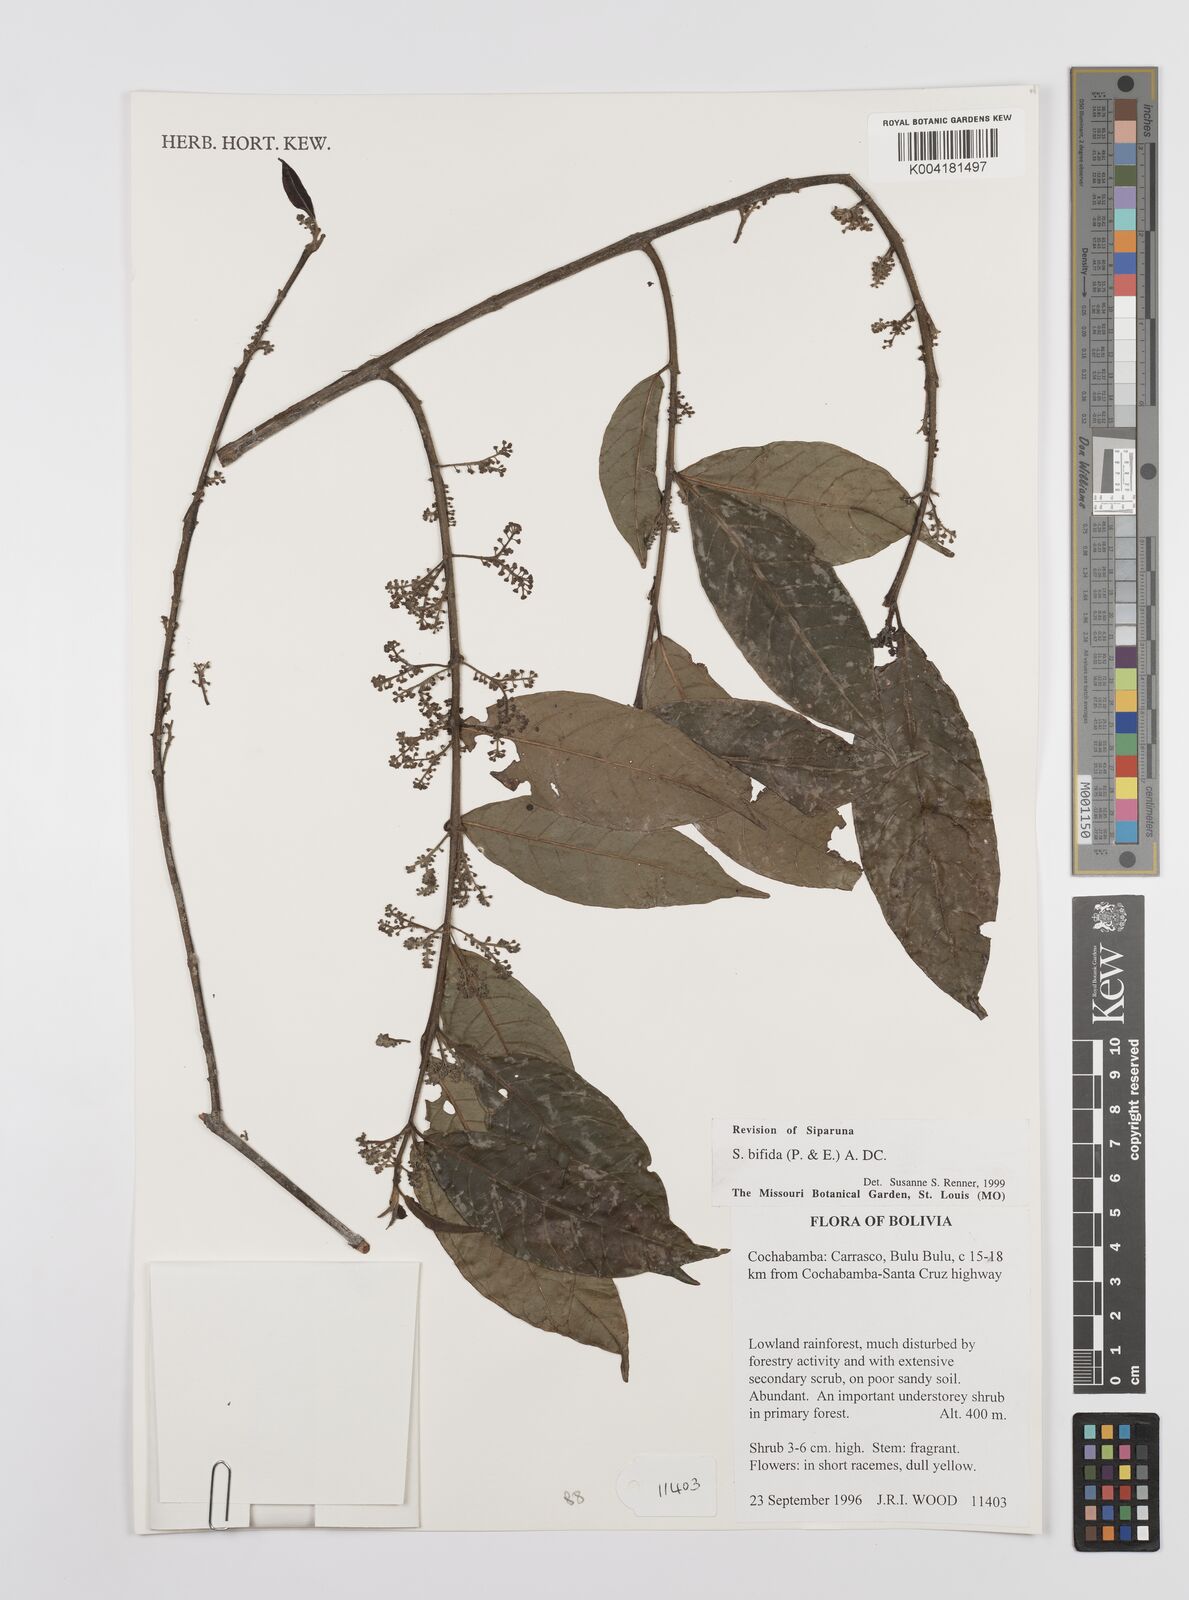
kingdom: Plantae
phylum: Tracheophyta
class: Magnoliopsida
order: Laurales
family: Siparunaceae
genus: Siparuna
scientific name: Siparuna bifida
